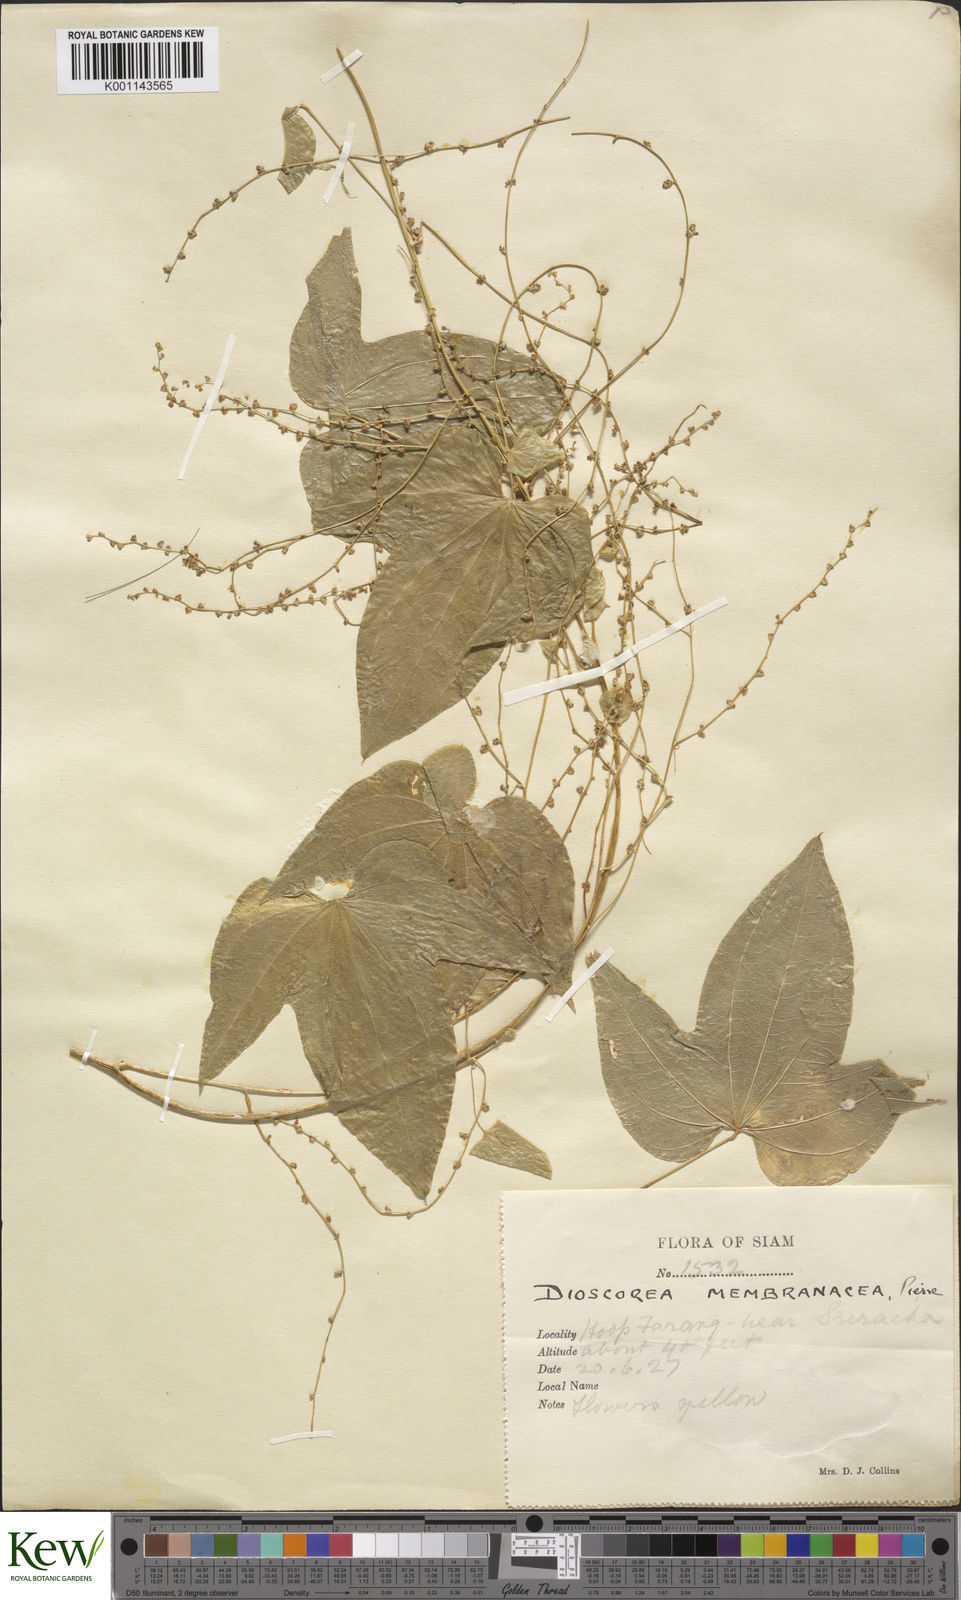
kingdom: Plantae
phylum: Tracheophyta
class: Liliopsida
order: Dioscoreales
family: Dioscoreaceae
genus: Dioscorea
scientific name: Dioscorea membranacea
